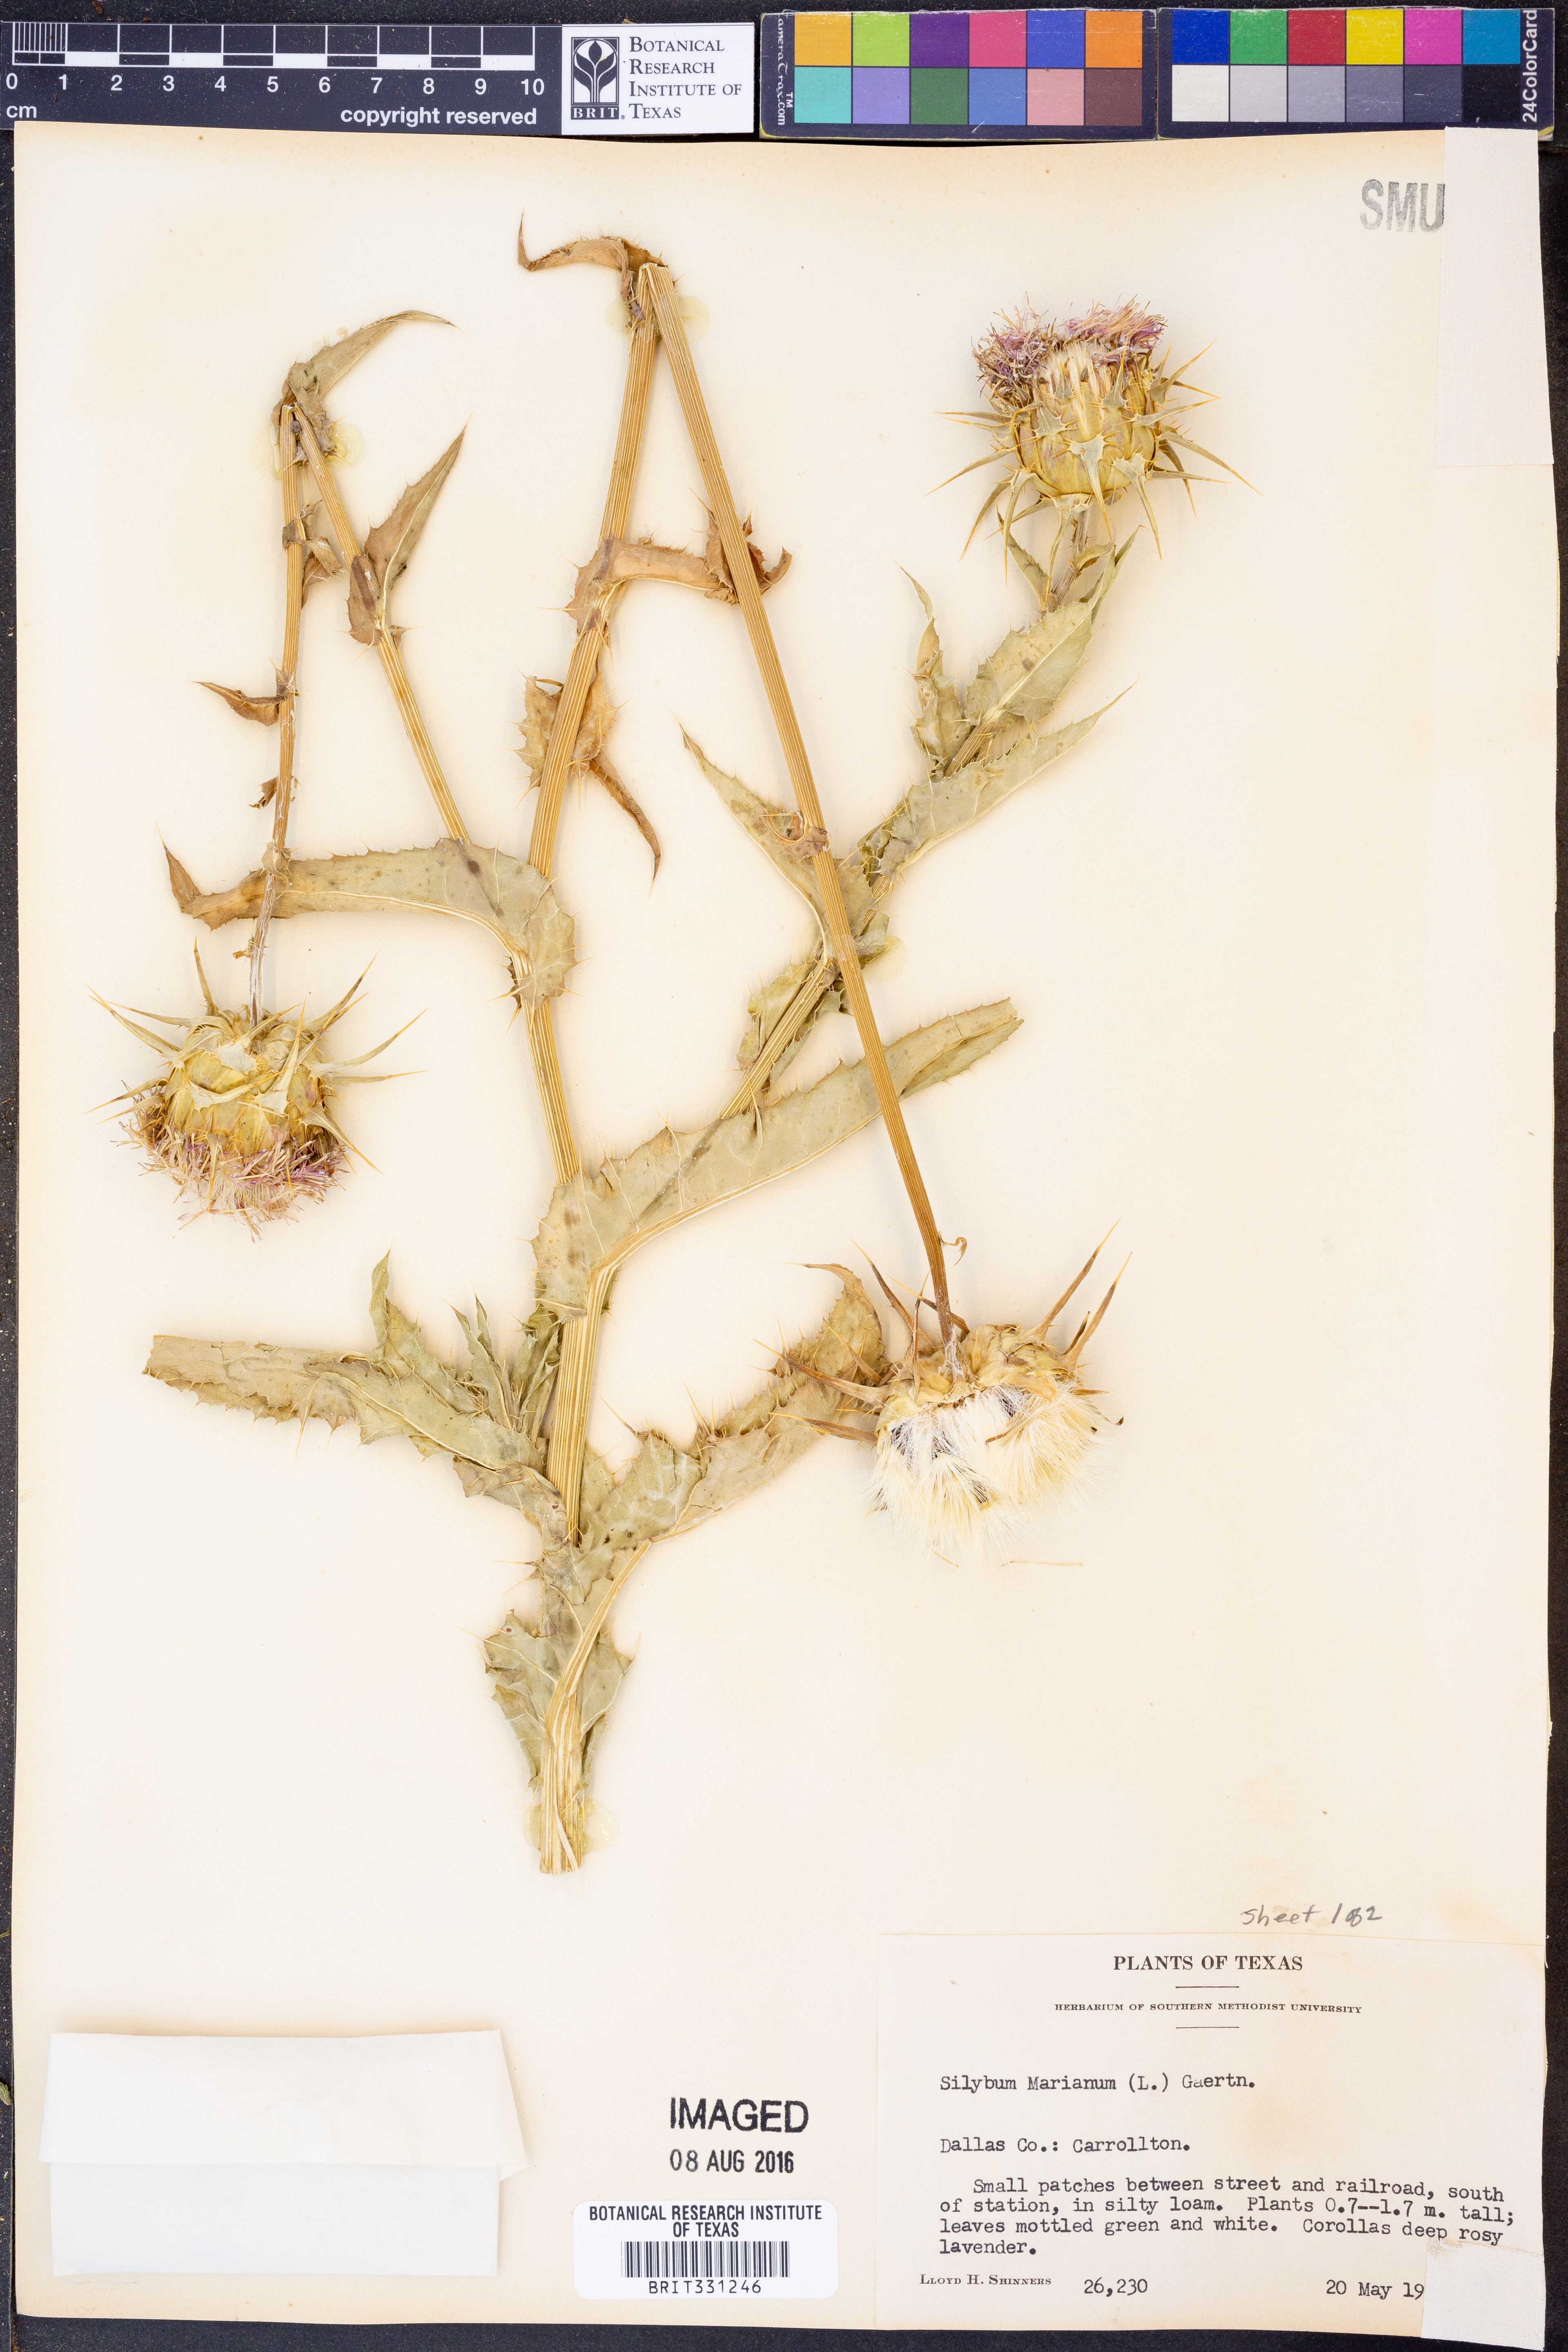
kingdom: Plantae
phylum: Tracheophyta
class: Magnoliopsida
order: Asterales
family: Asteraceae
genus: Silybum
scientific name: Silybum marianum
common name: Milk thistle
